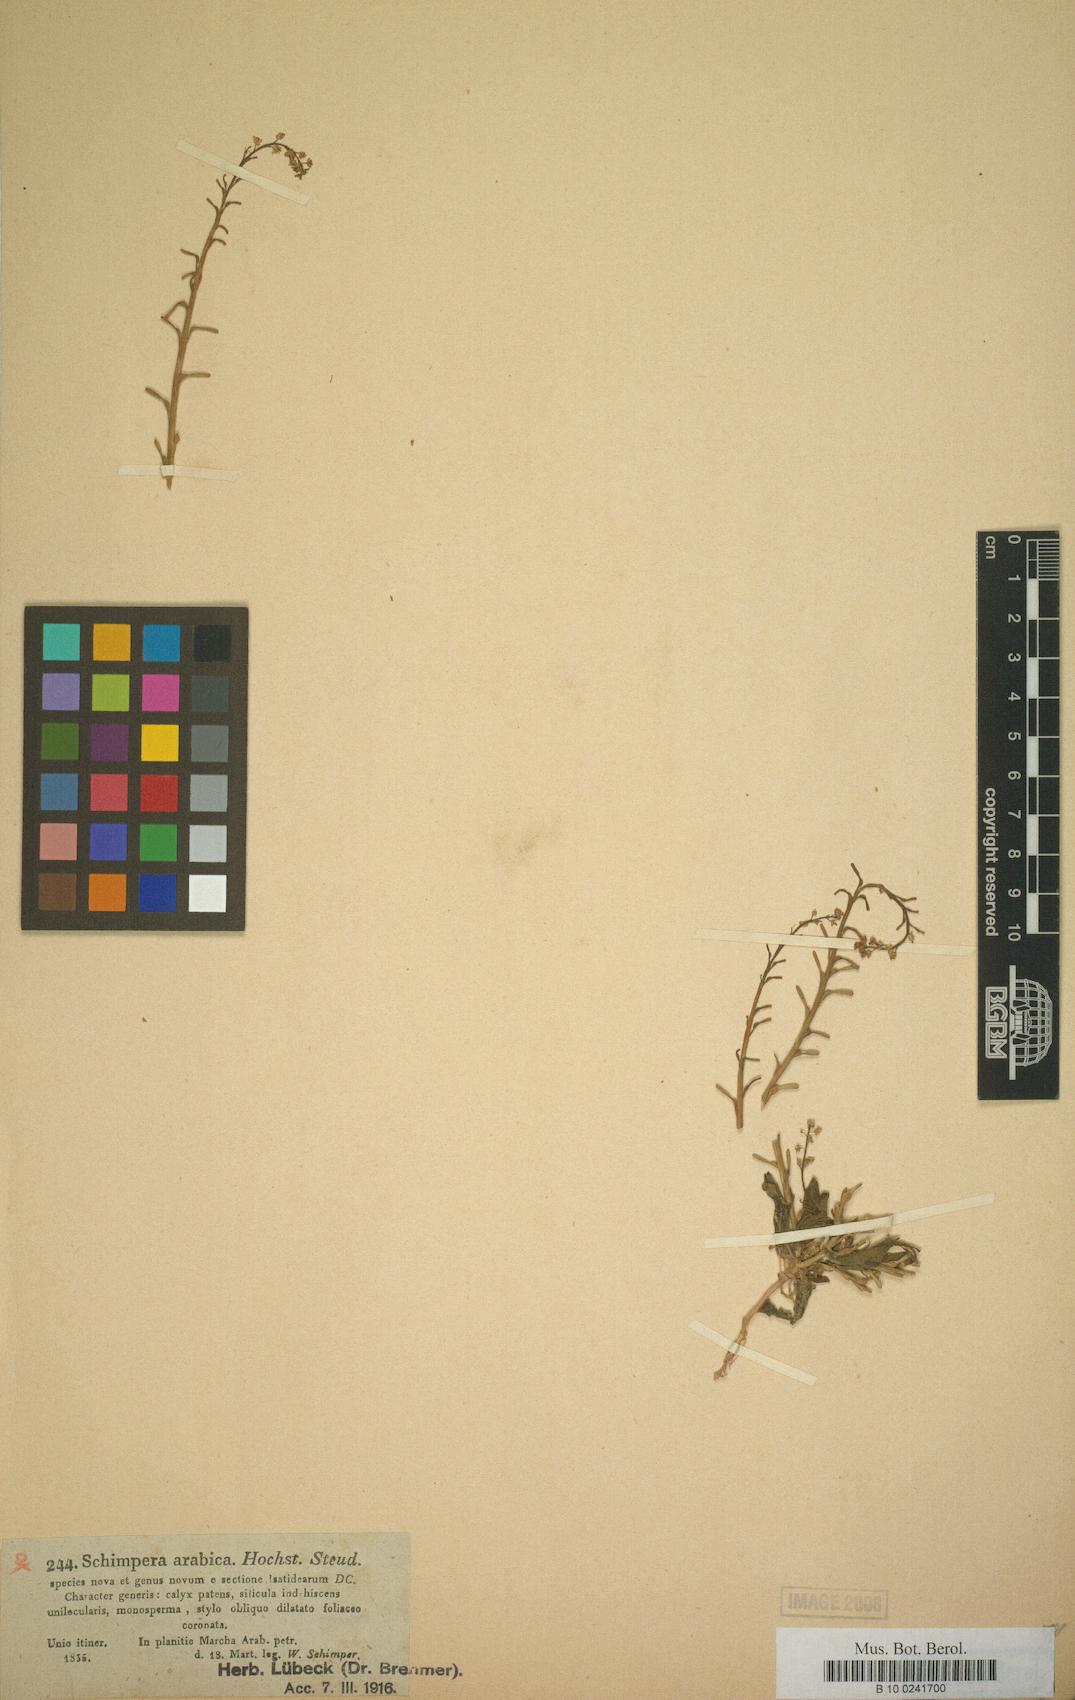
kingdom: Plantae
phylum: Tracheophyta
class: Magnoliopsida
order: Brassicales
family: Brassicaceae
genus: Schimpera
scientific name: Schimpera arabica
